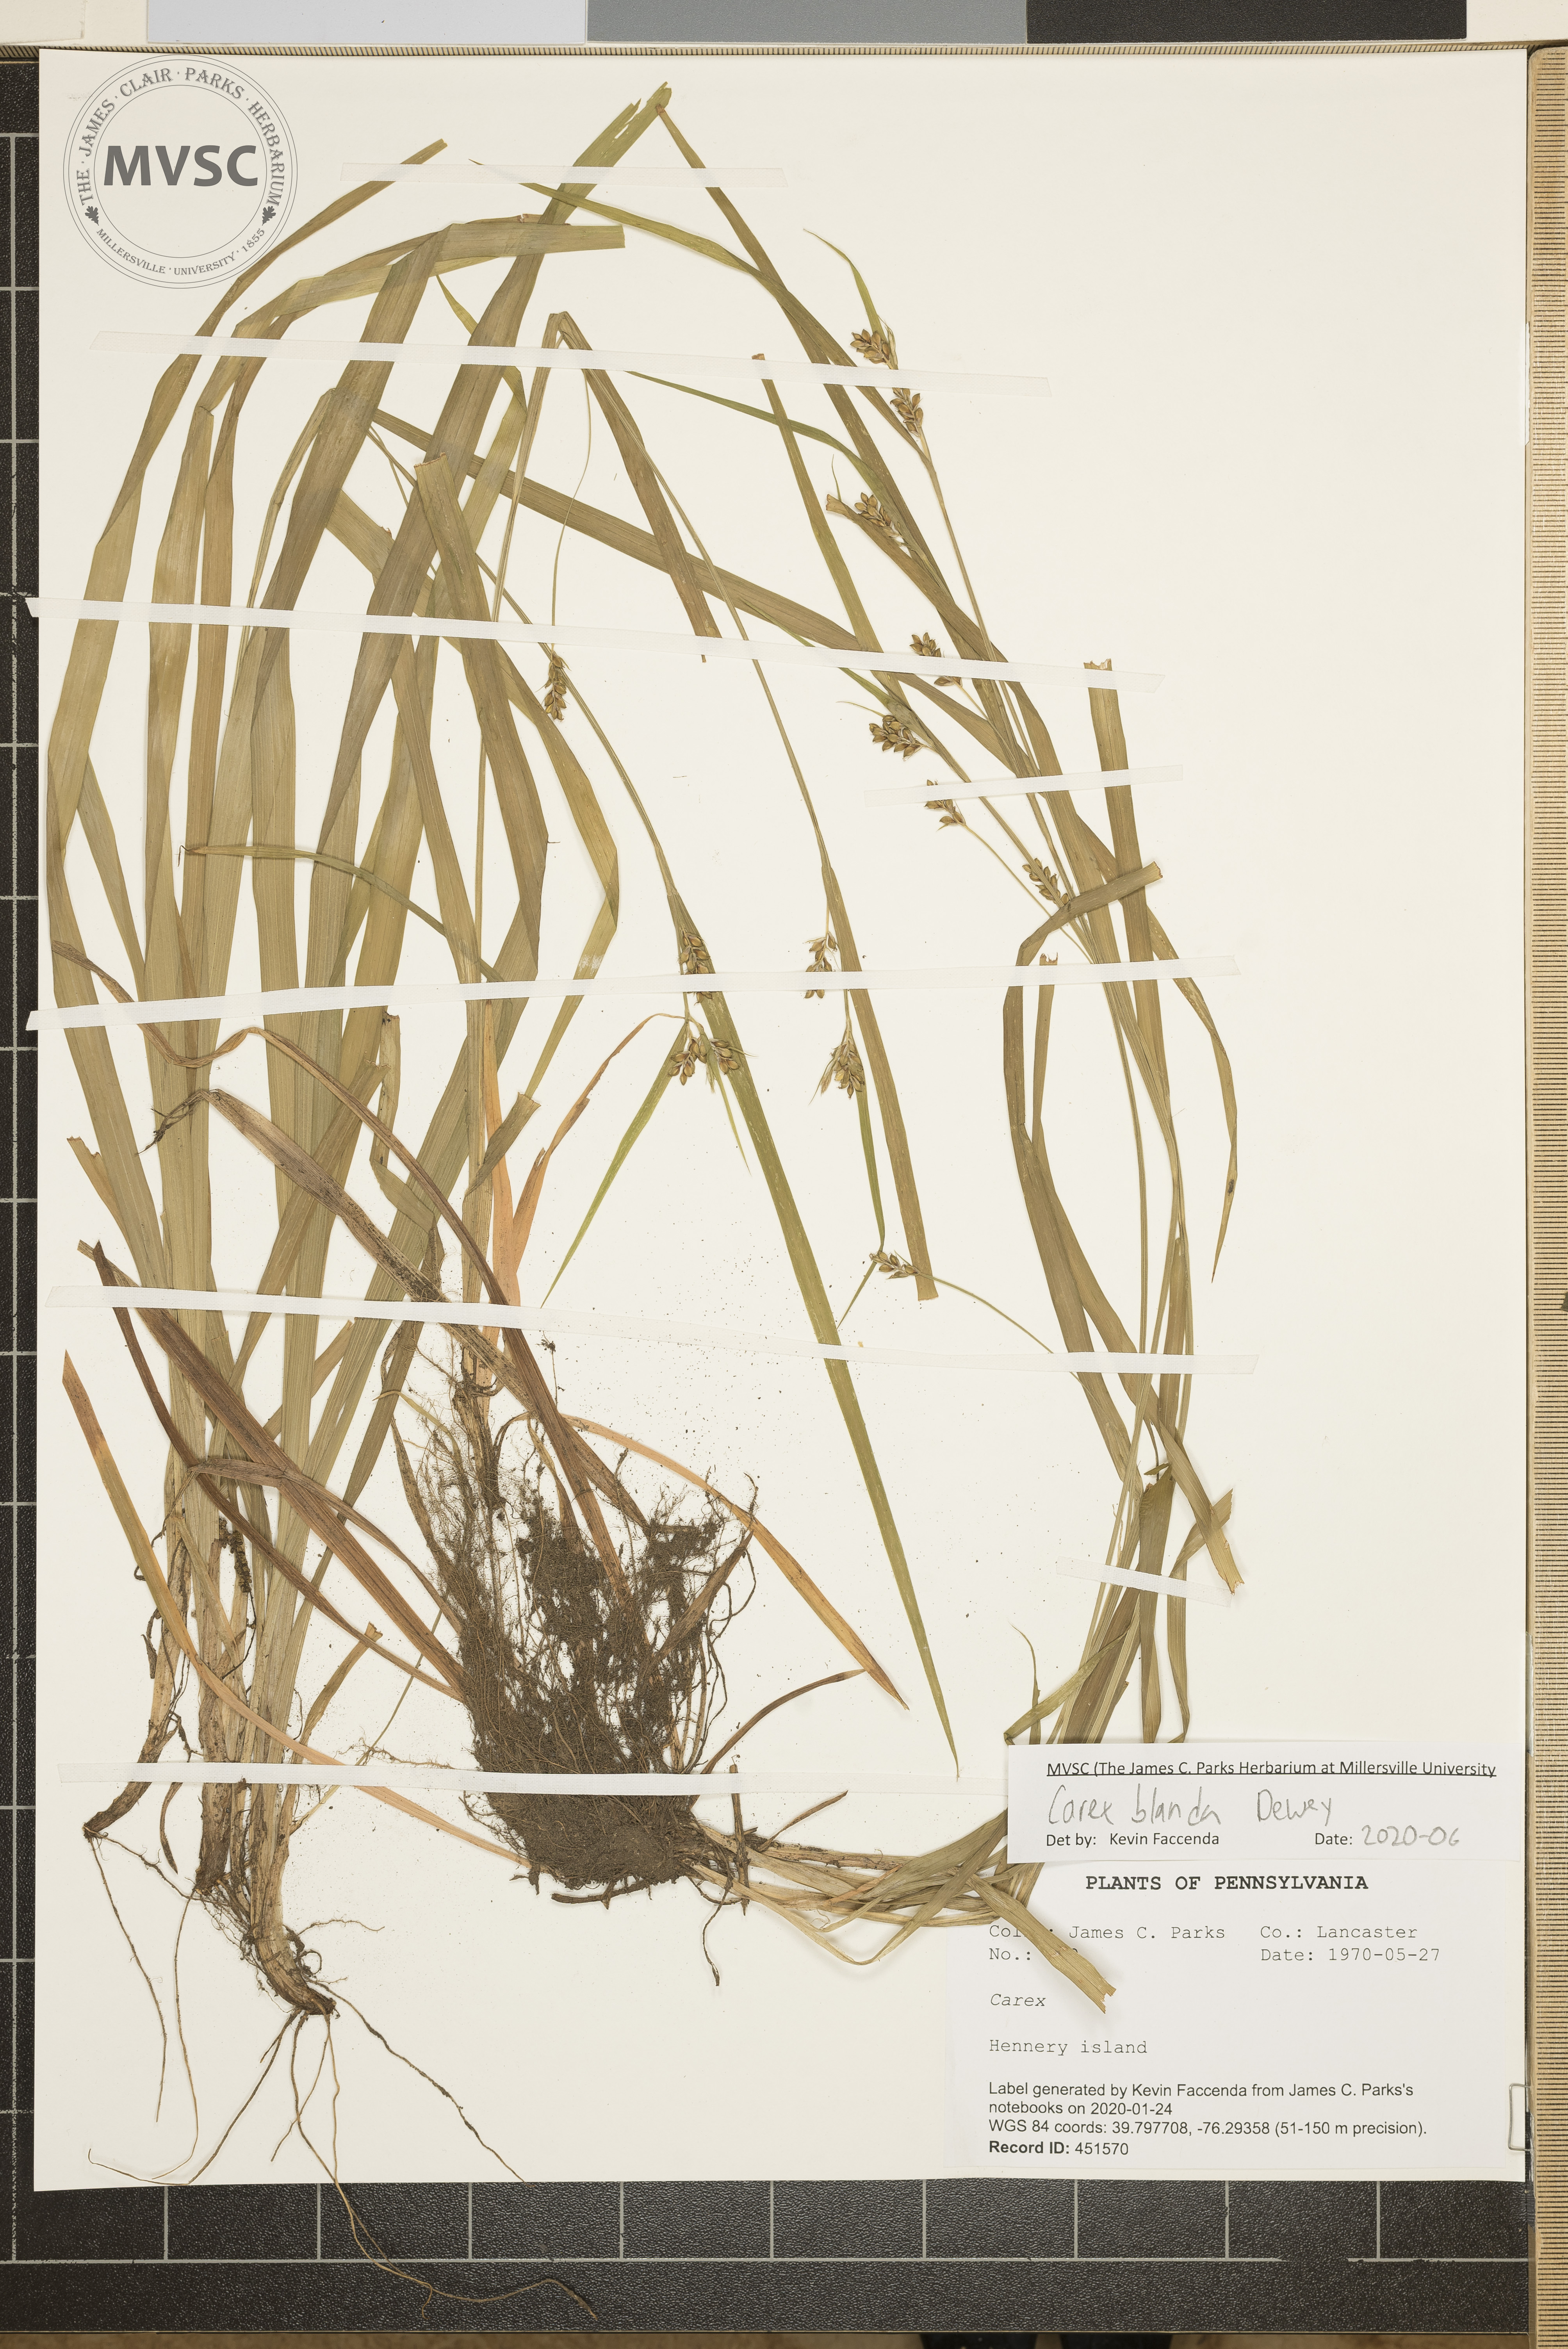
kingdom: Plantae
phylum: Tracheophyta
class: Liliopsida
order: Poales
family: Cyperaceae
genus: Carex
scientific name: Carex blanda
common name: Bland sedge
